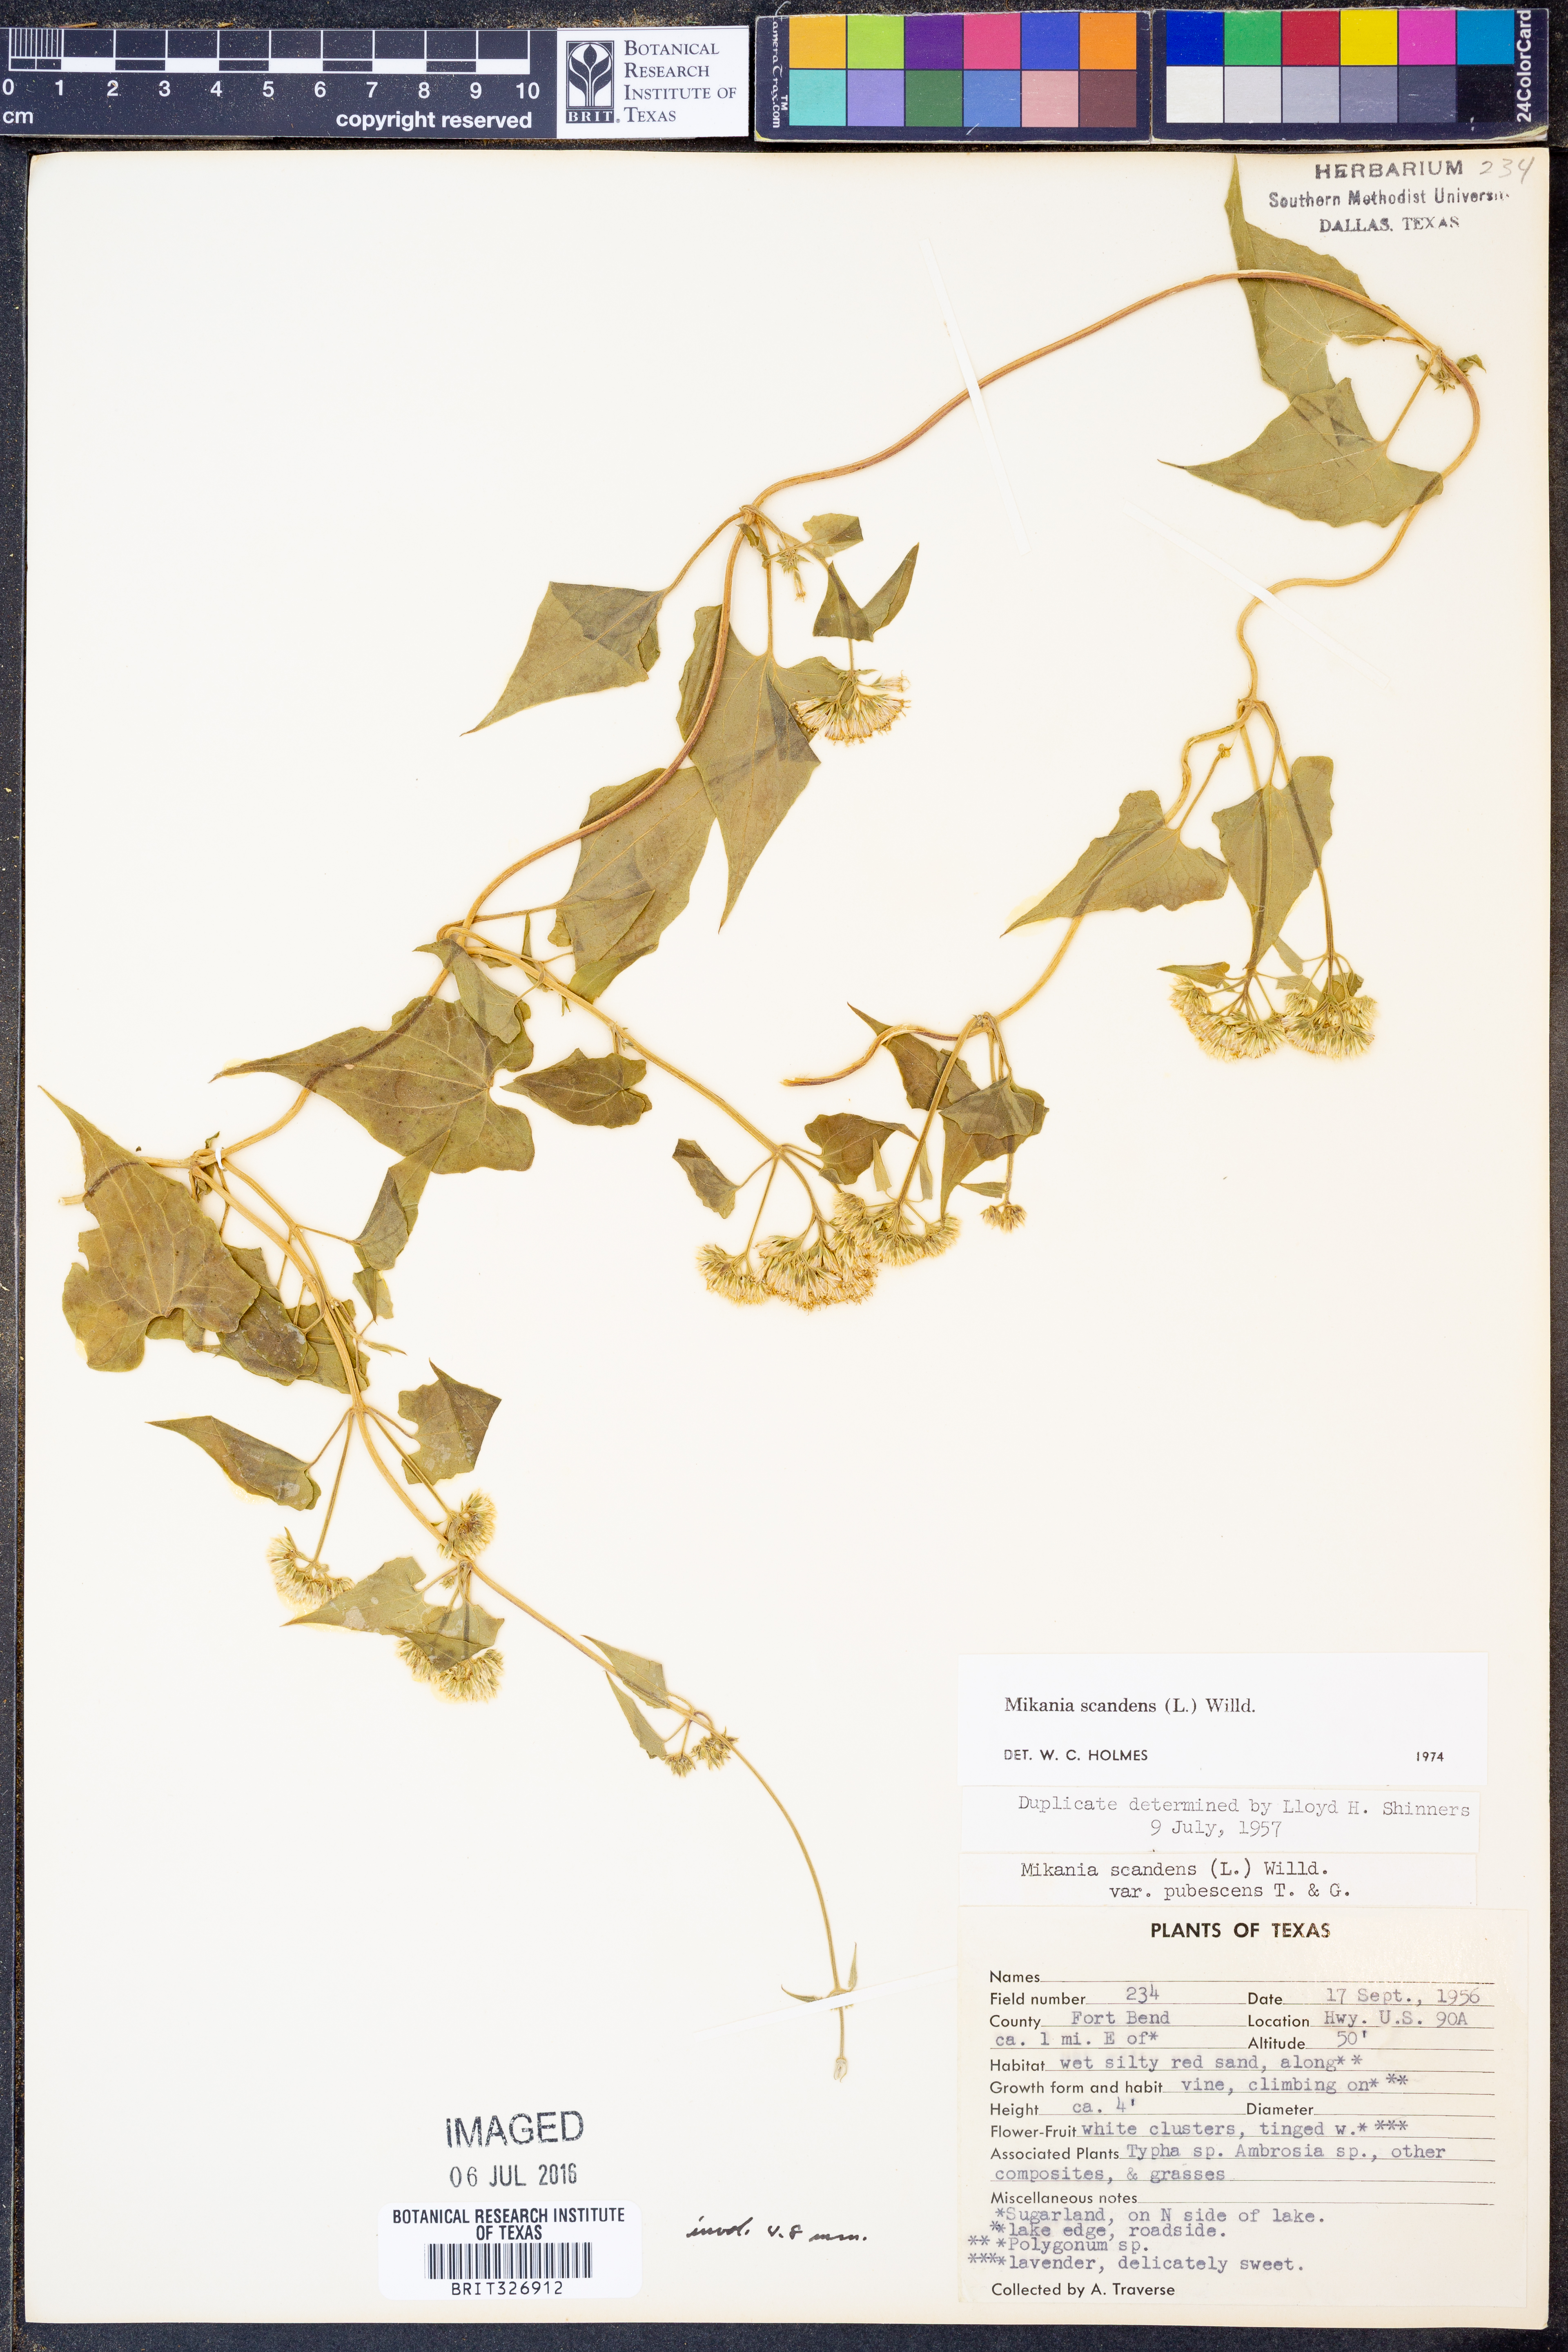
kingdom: Plantae
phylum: Tracheophyta
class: Magnoliopsida
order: Asterales
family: Asteraceae
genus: Mikania
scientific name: Mikania scandens
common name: Climbing hempvine
